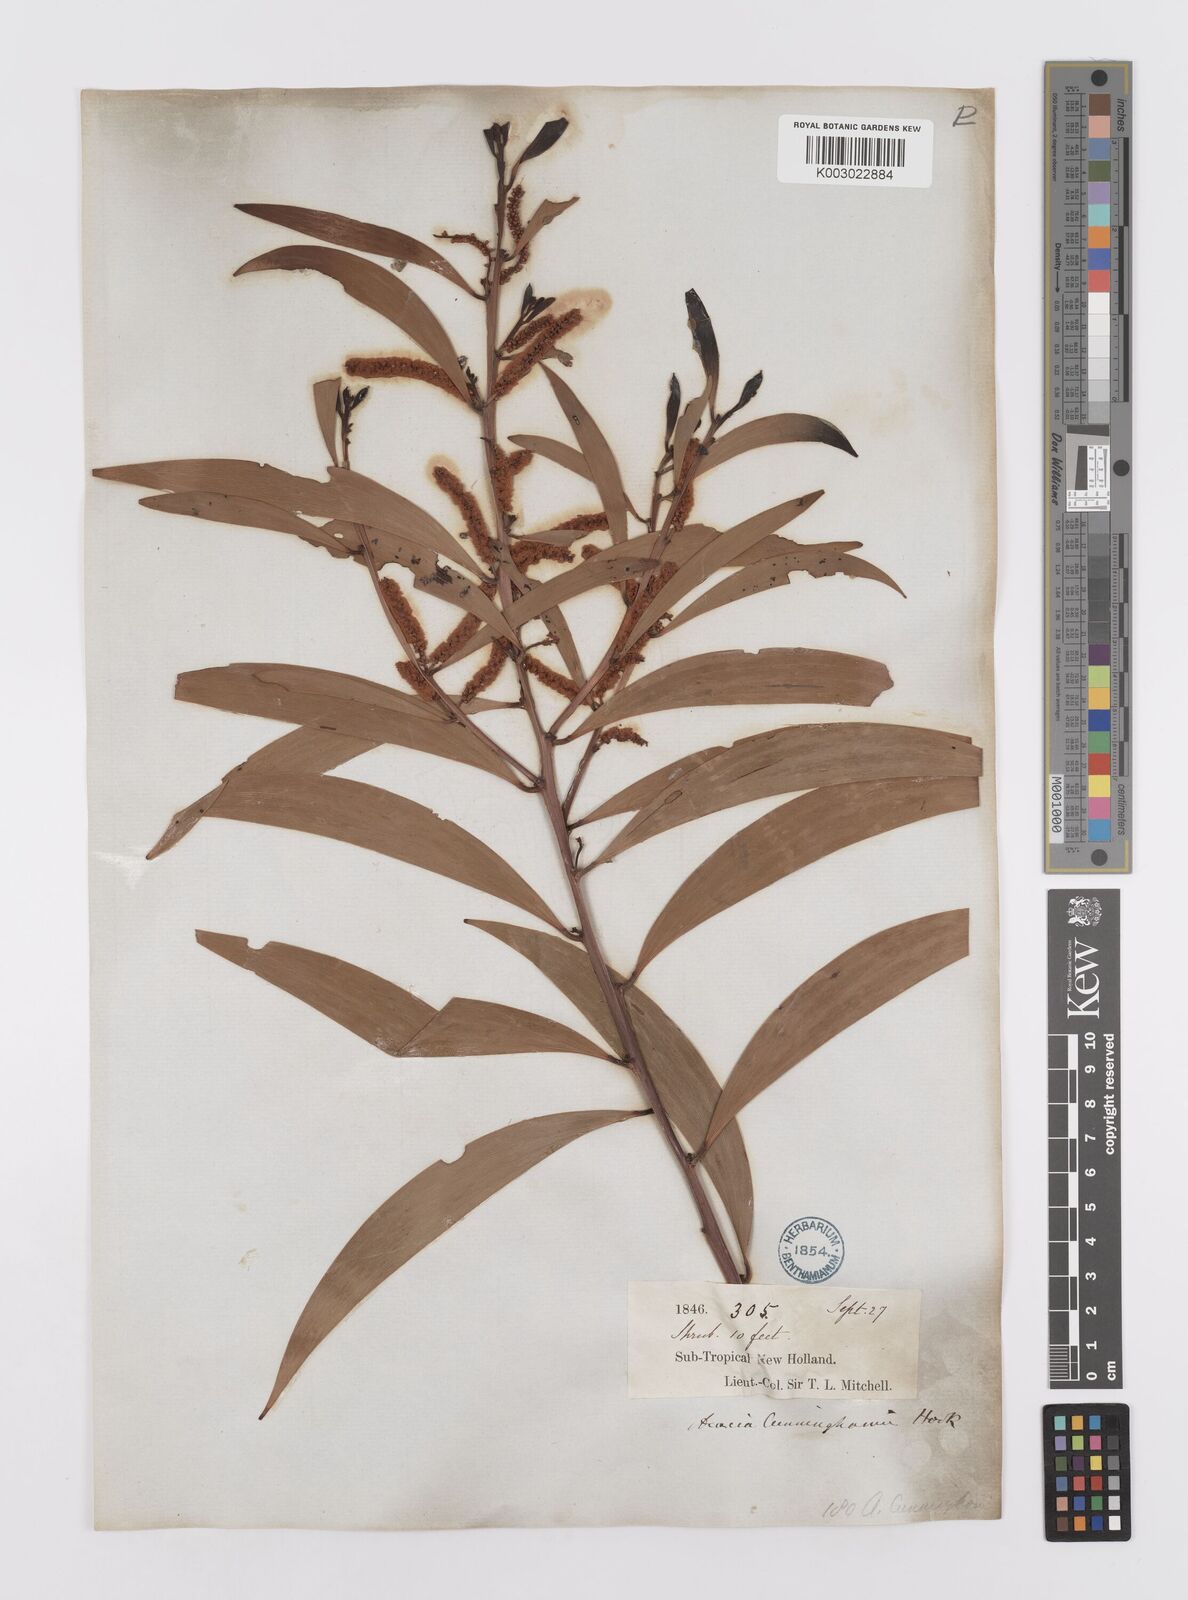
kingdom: Plantae
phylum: Tracheophyta
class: Magnoliopsida
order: Fabales
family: Fabaceae
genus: Acacia
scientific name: Acacia longispicata
